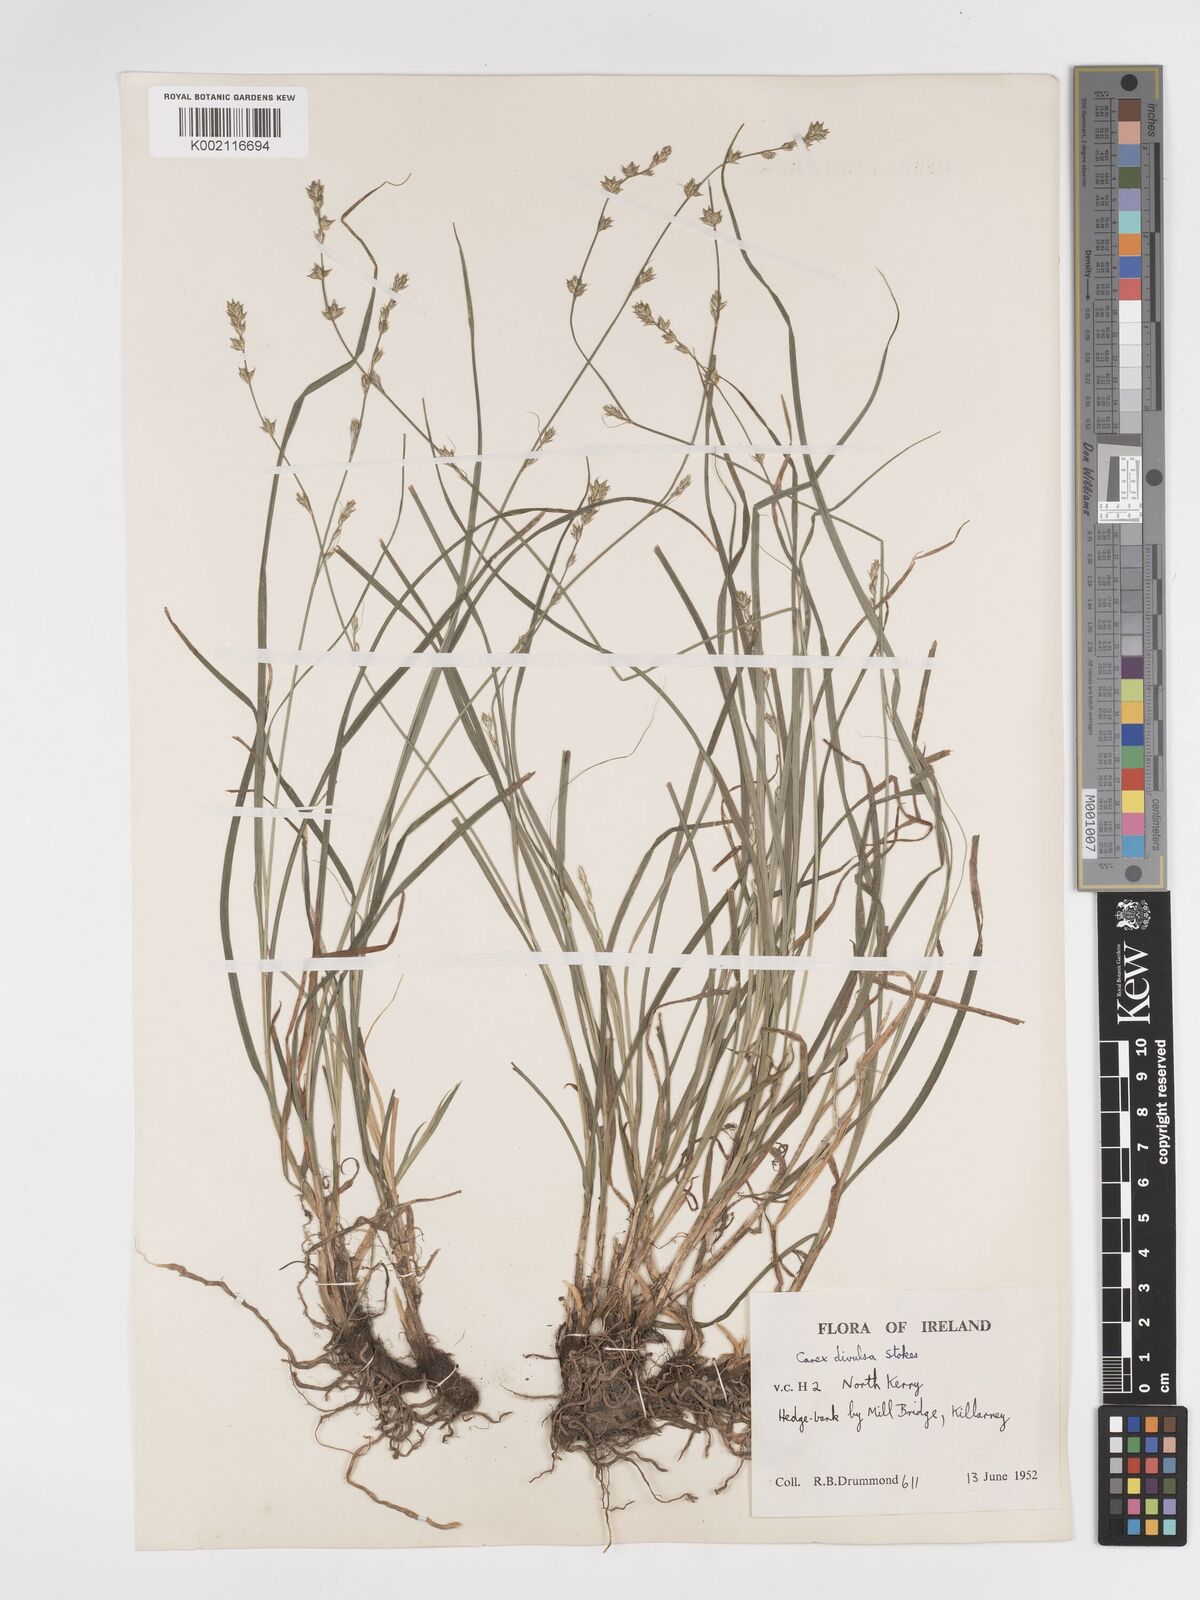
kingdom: Plantae
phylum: Tracheophyta
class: Liliopsida
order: Poales
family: Cyperaceae
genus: Carex
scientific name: Carex divulsa
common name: Grassland sedge
